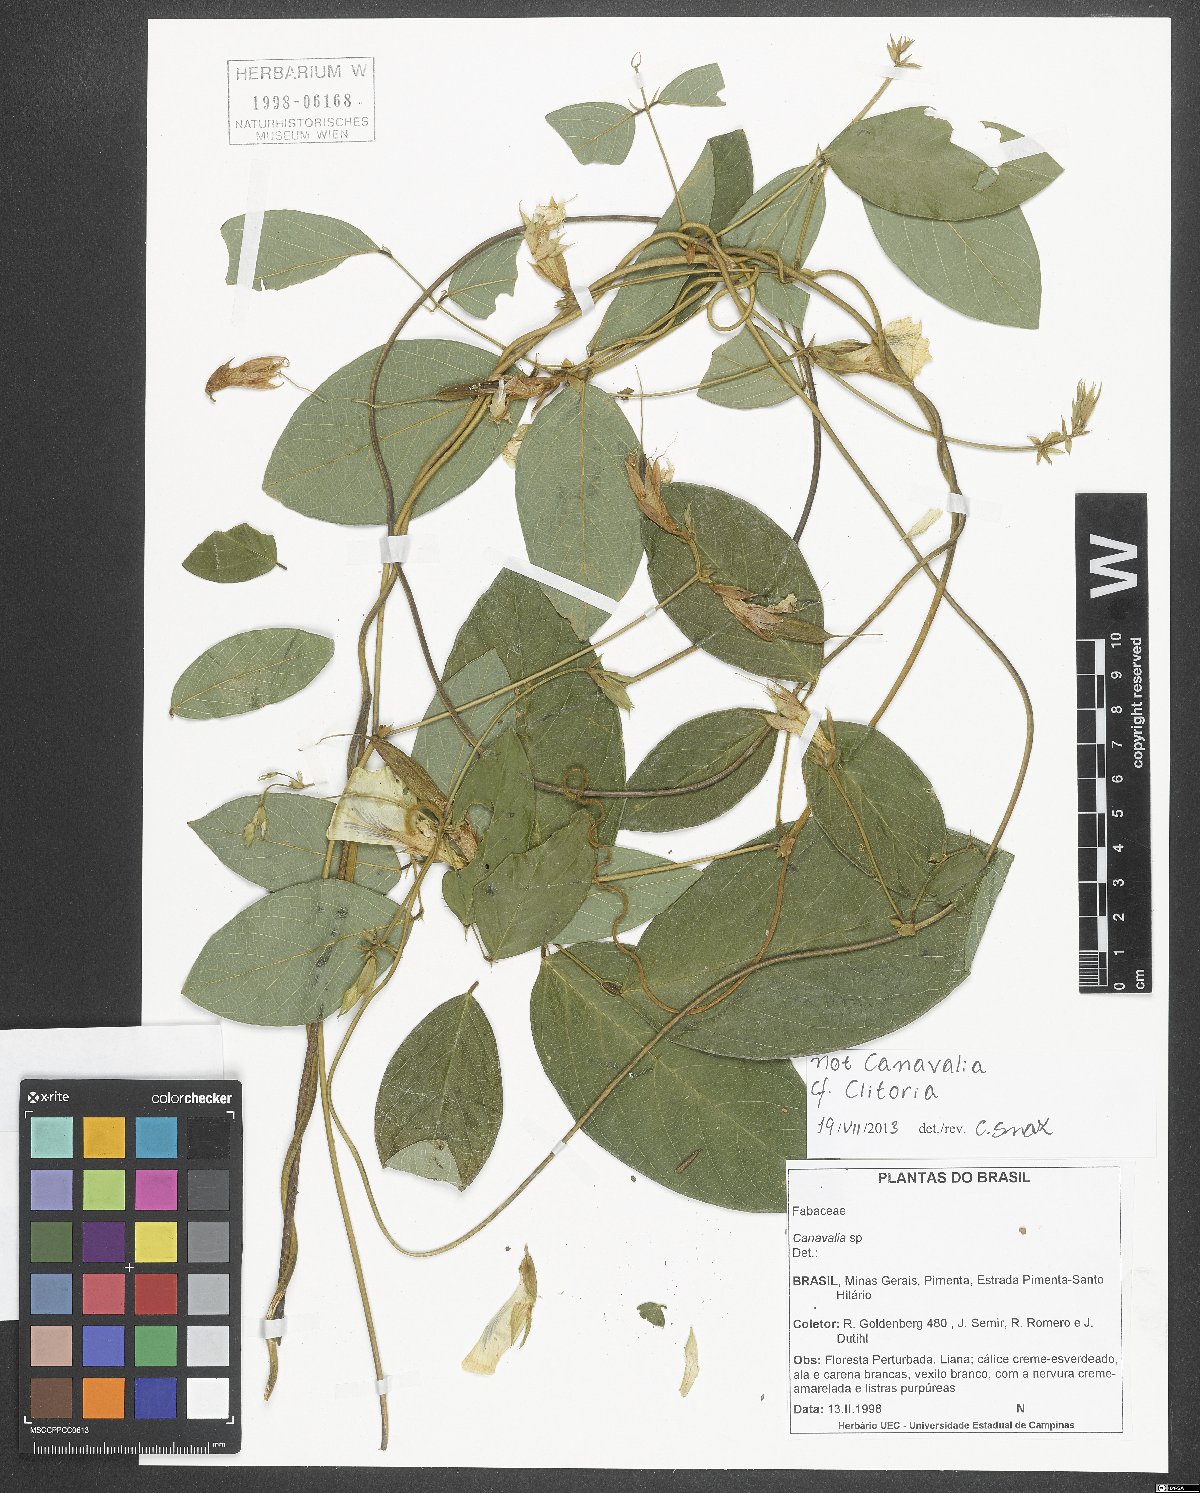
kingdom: Plantae
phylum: Tracheophyta
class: Magnoliopsida
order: Fabales
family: Fabaceae
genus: Clitoria
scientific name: Clitoria
